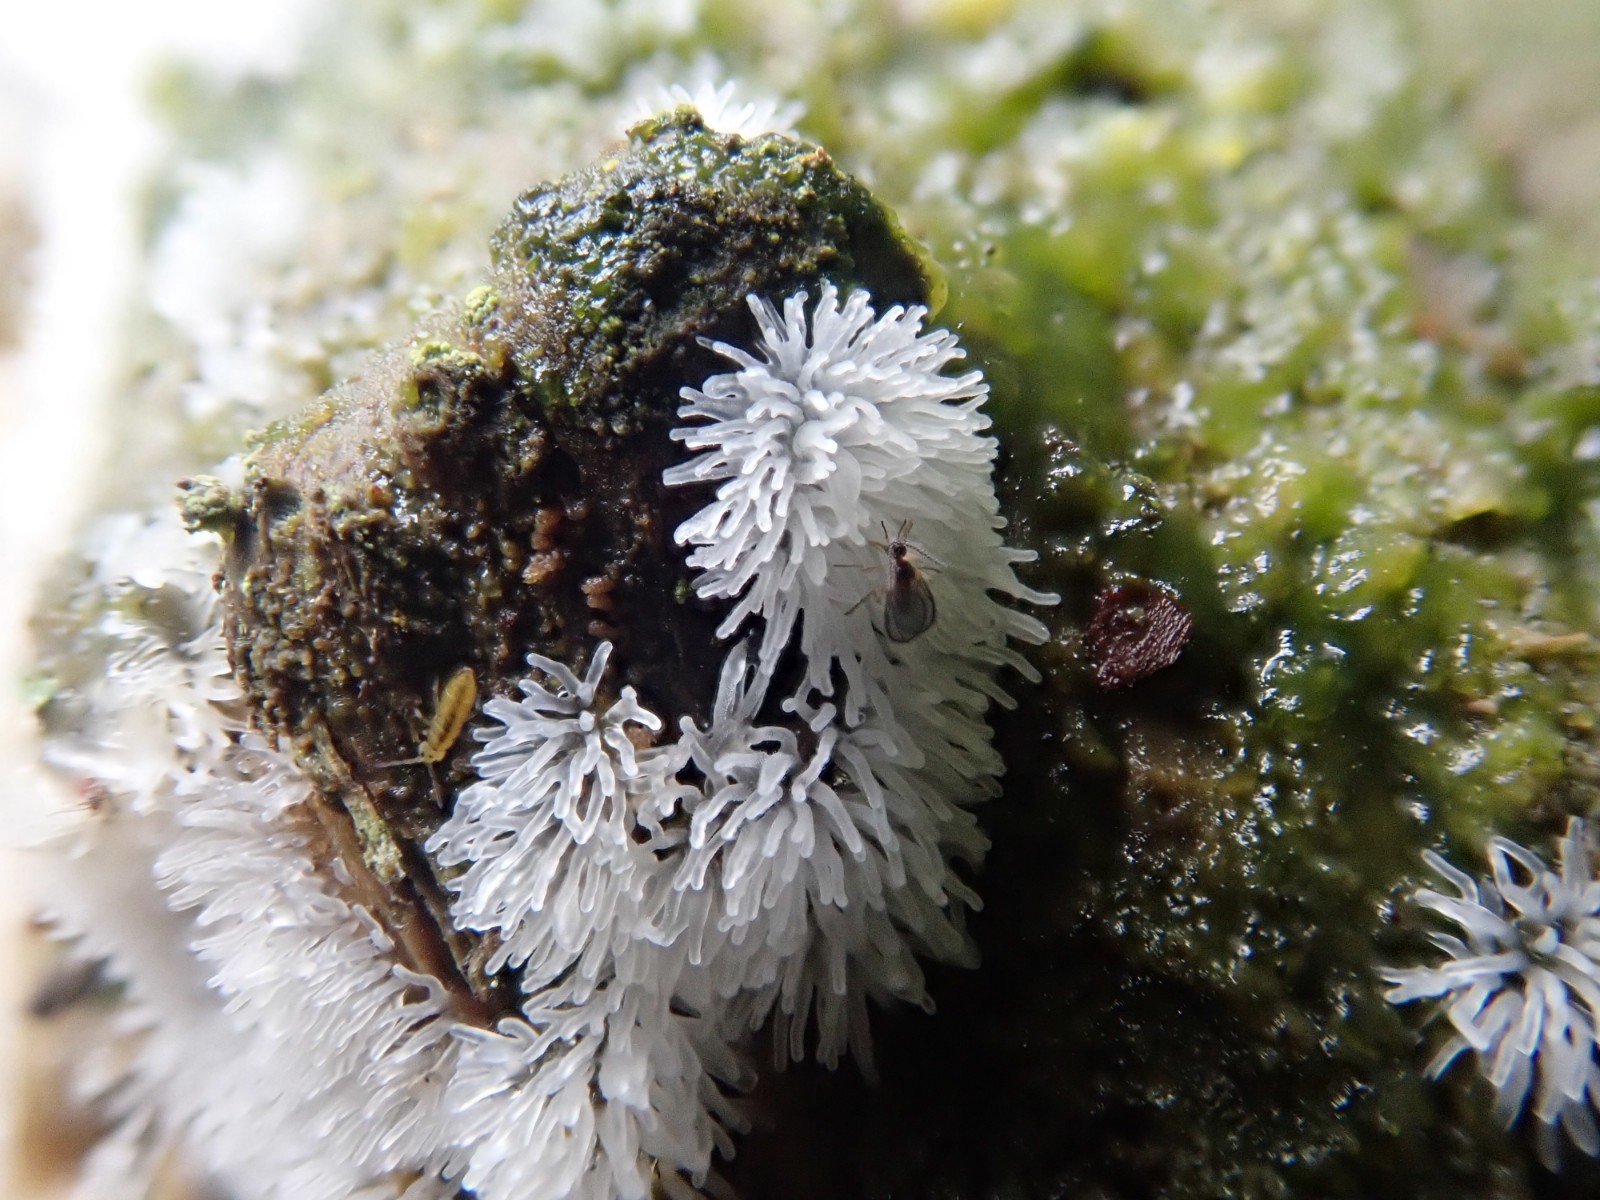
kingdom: Protozoa
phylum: Mycetozoa
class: Protosteliomycetes
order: Ceratiomyxales
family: Ceratiomyxaceae
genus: Ceratiomyxa
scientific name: Ceratiomyxa fruticulosa
